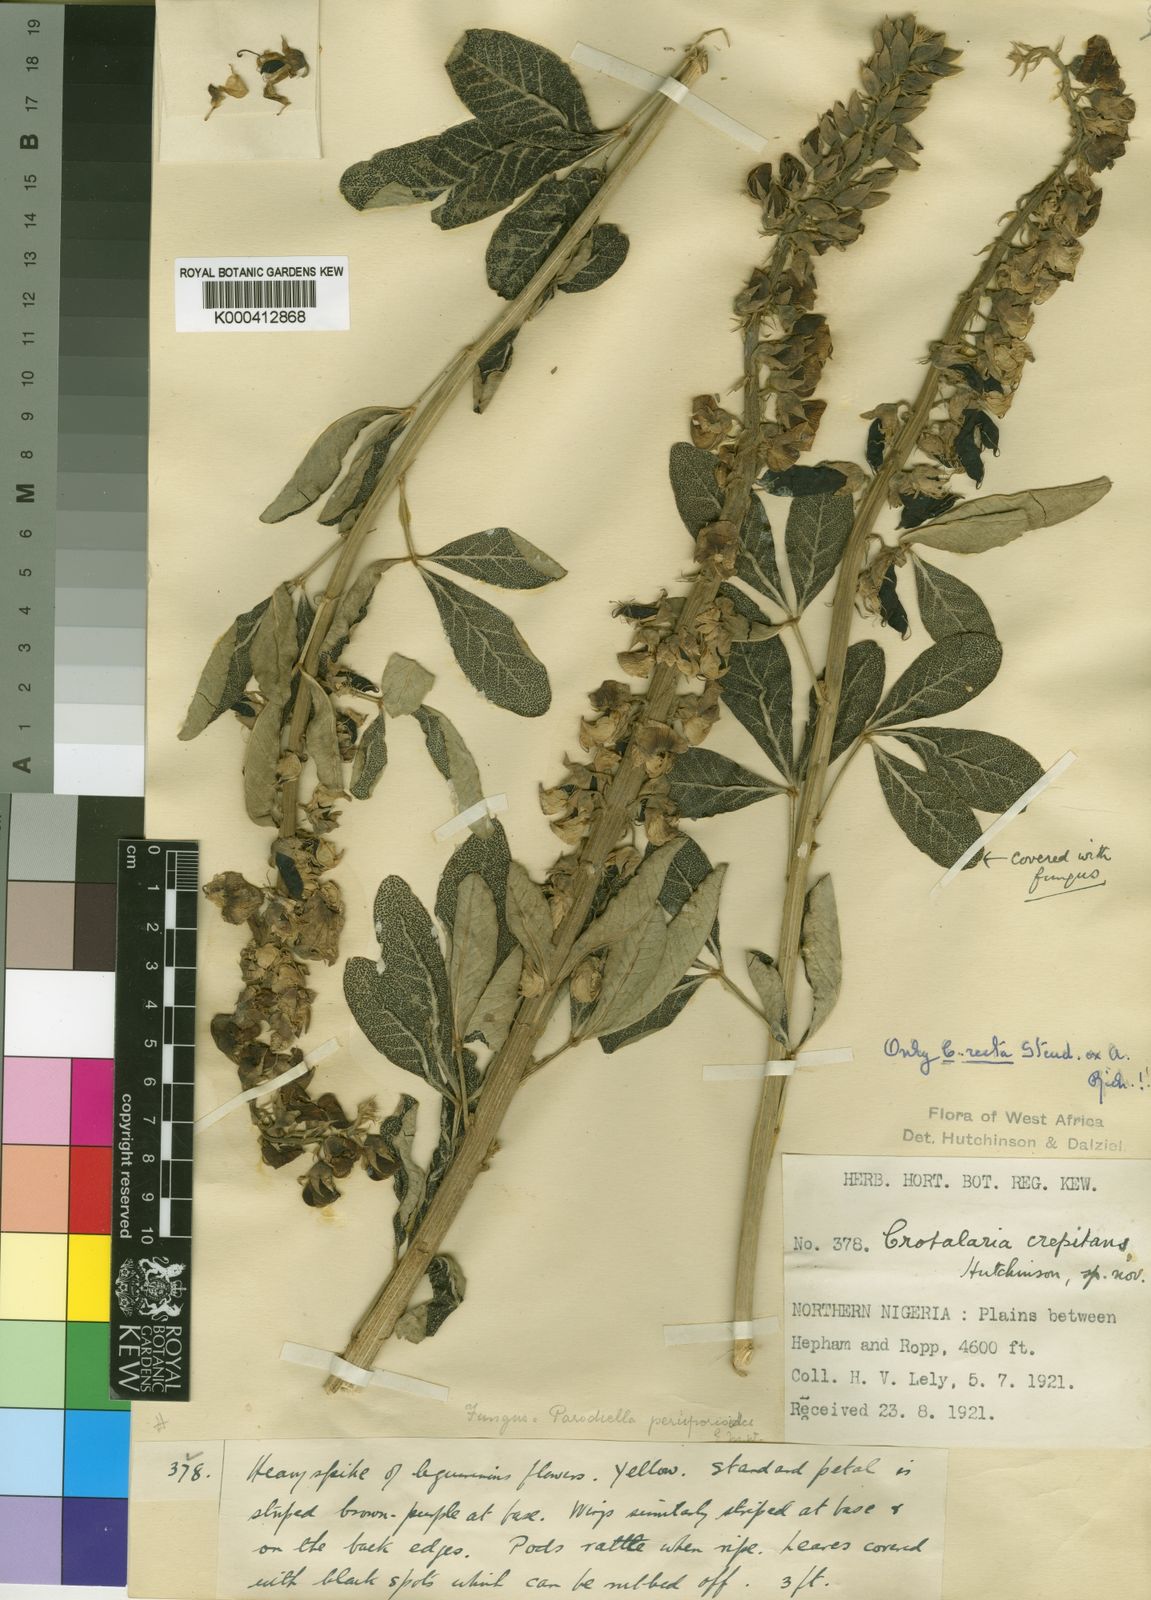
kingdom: Plantae
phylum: Tracheophyta
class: Magnoliopsida
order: Fabales
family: Fabaceae
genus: Crotalaria
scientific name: Crotalaria recta
